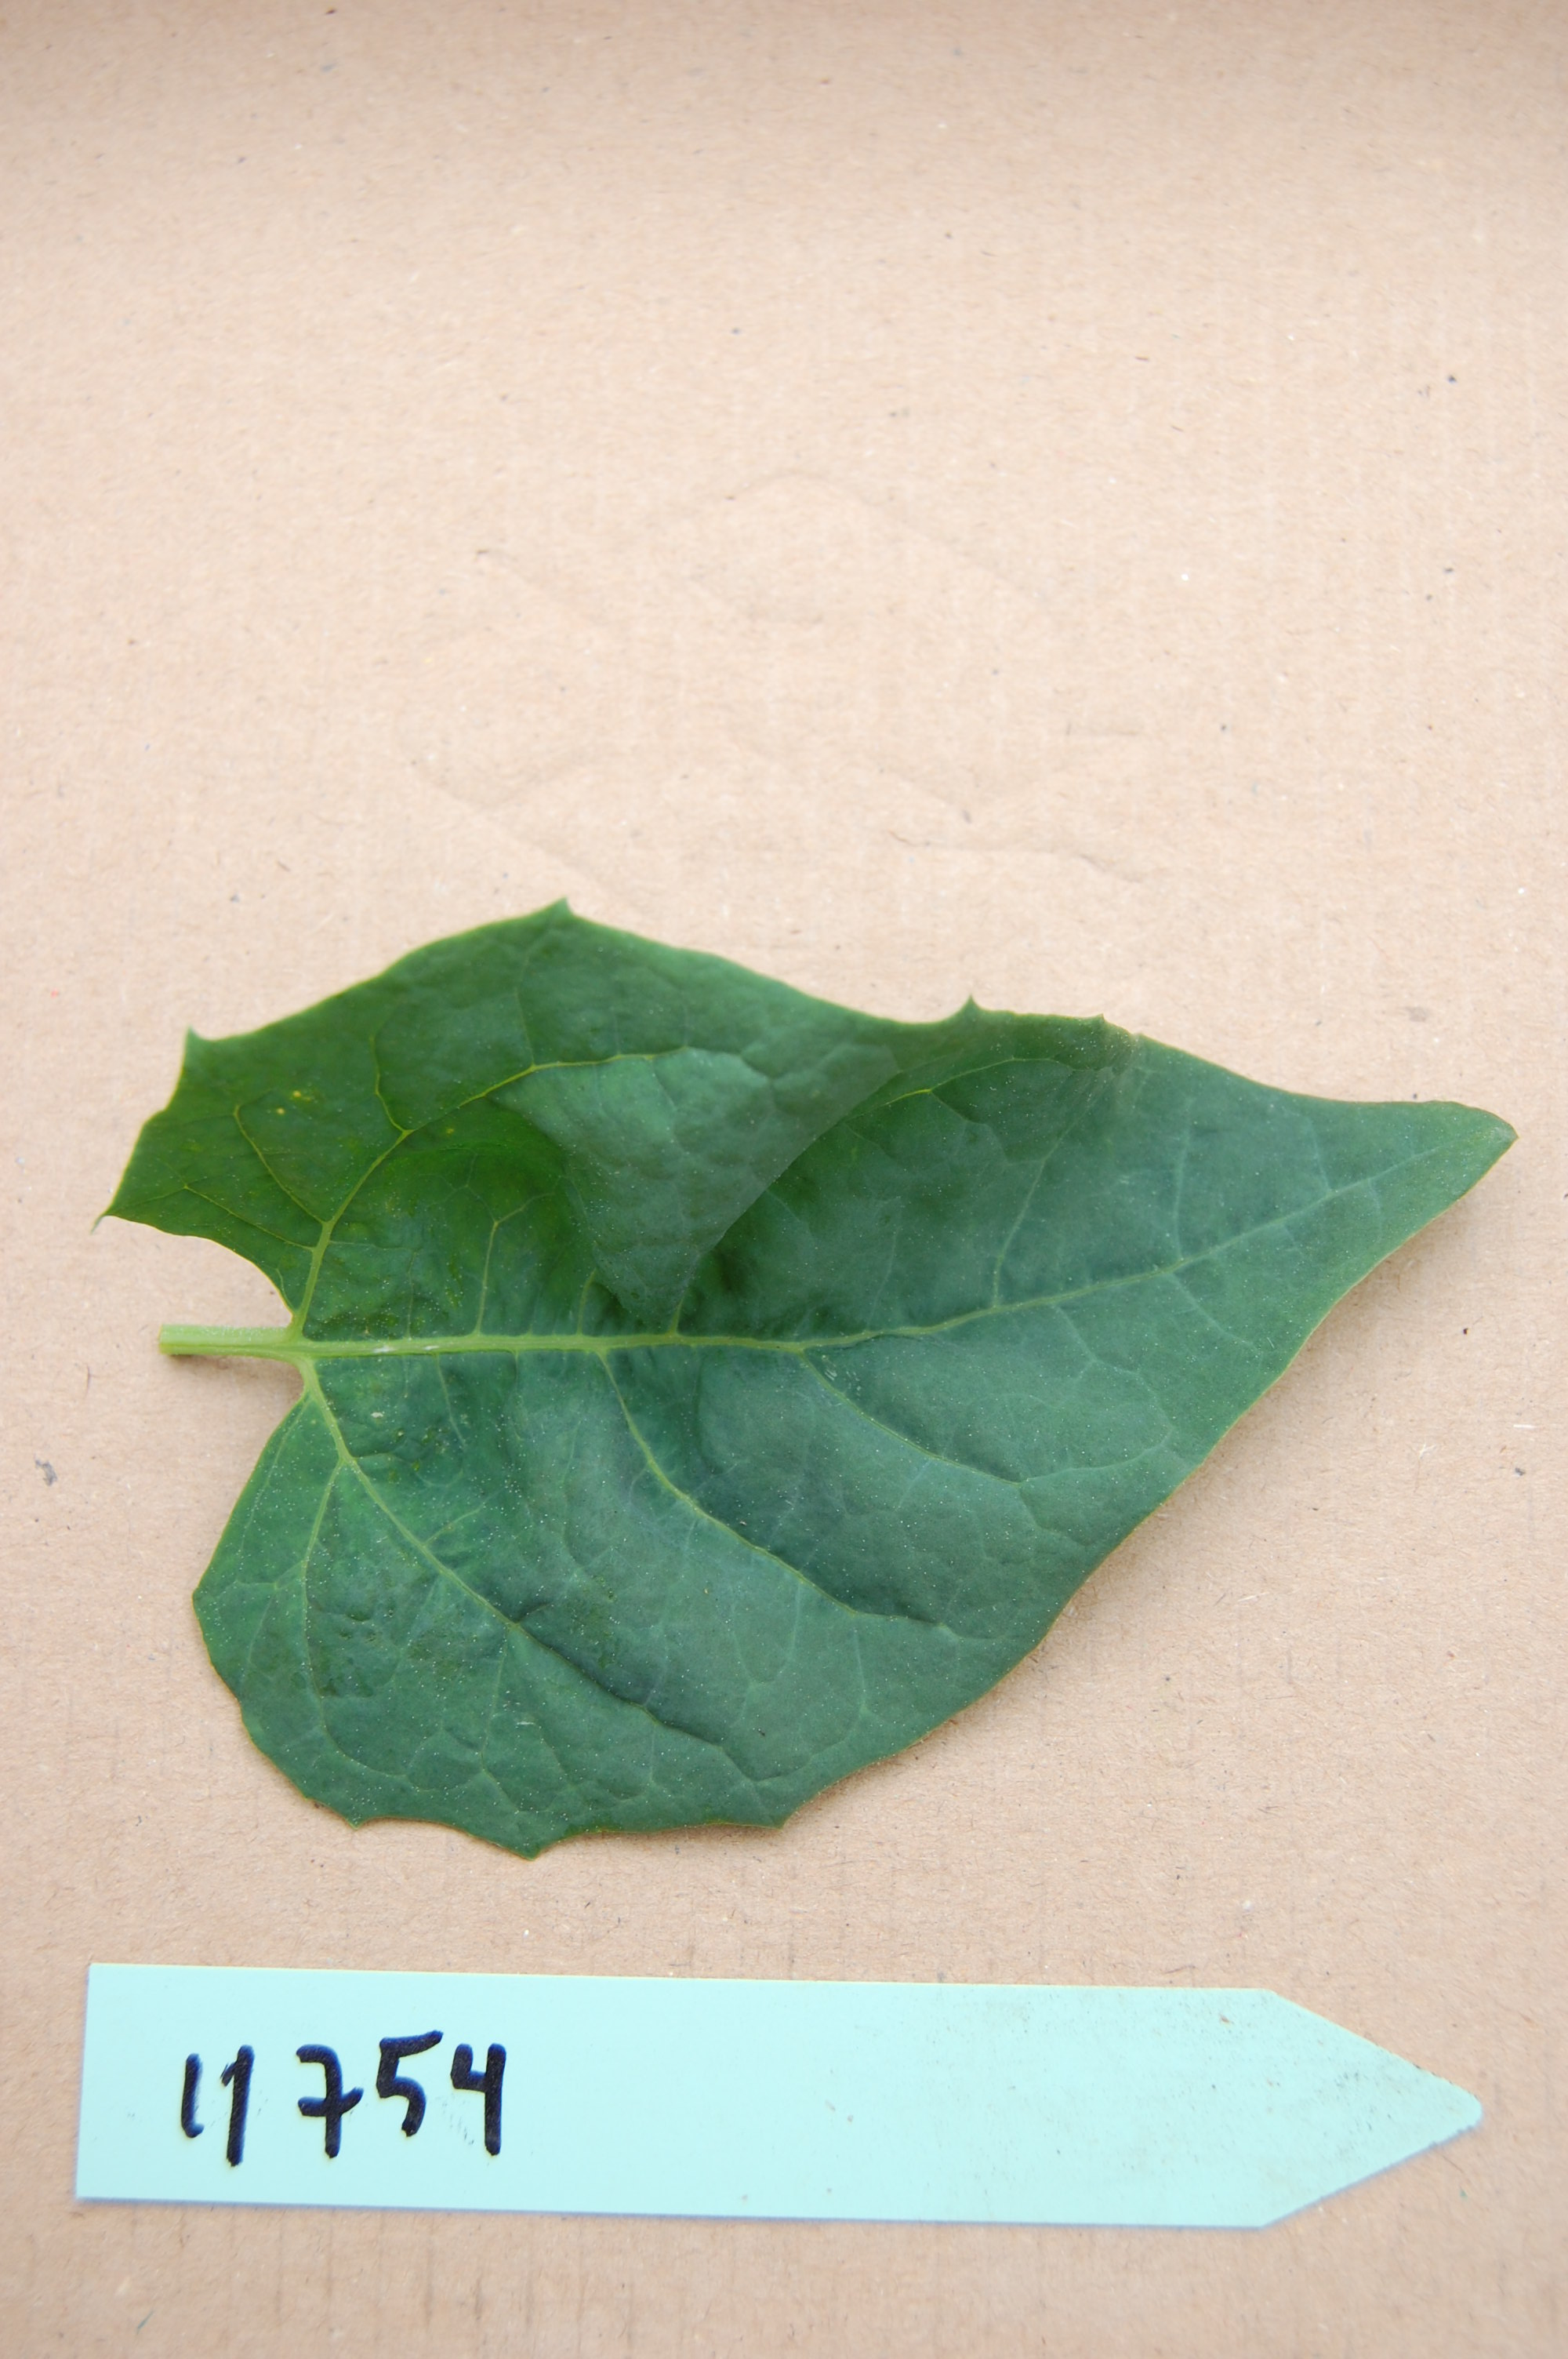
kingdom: Plantae
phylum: Tracheophyta
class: Magnoliopsida
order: Caryophyllales
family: Amaranthaceae
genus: Atriplex
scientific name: Atriplex hortensis
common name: Garden orache
